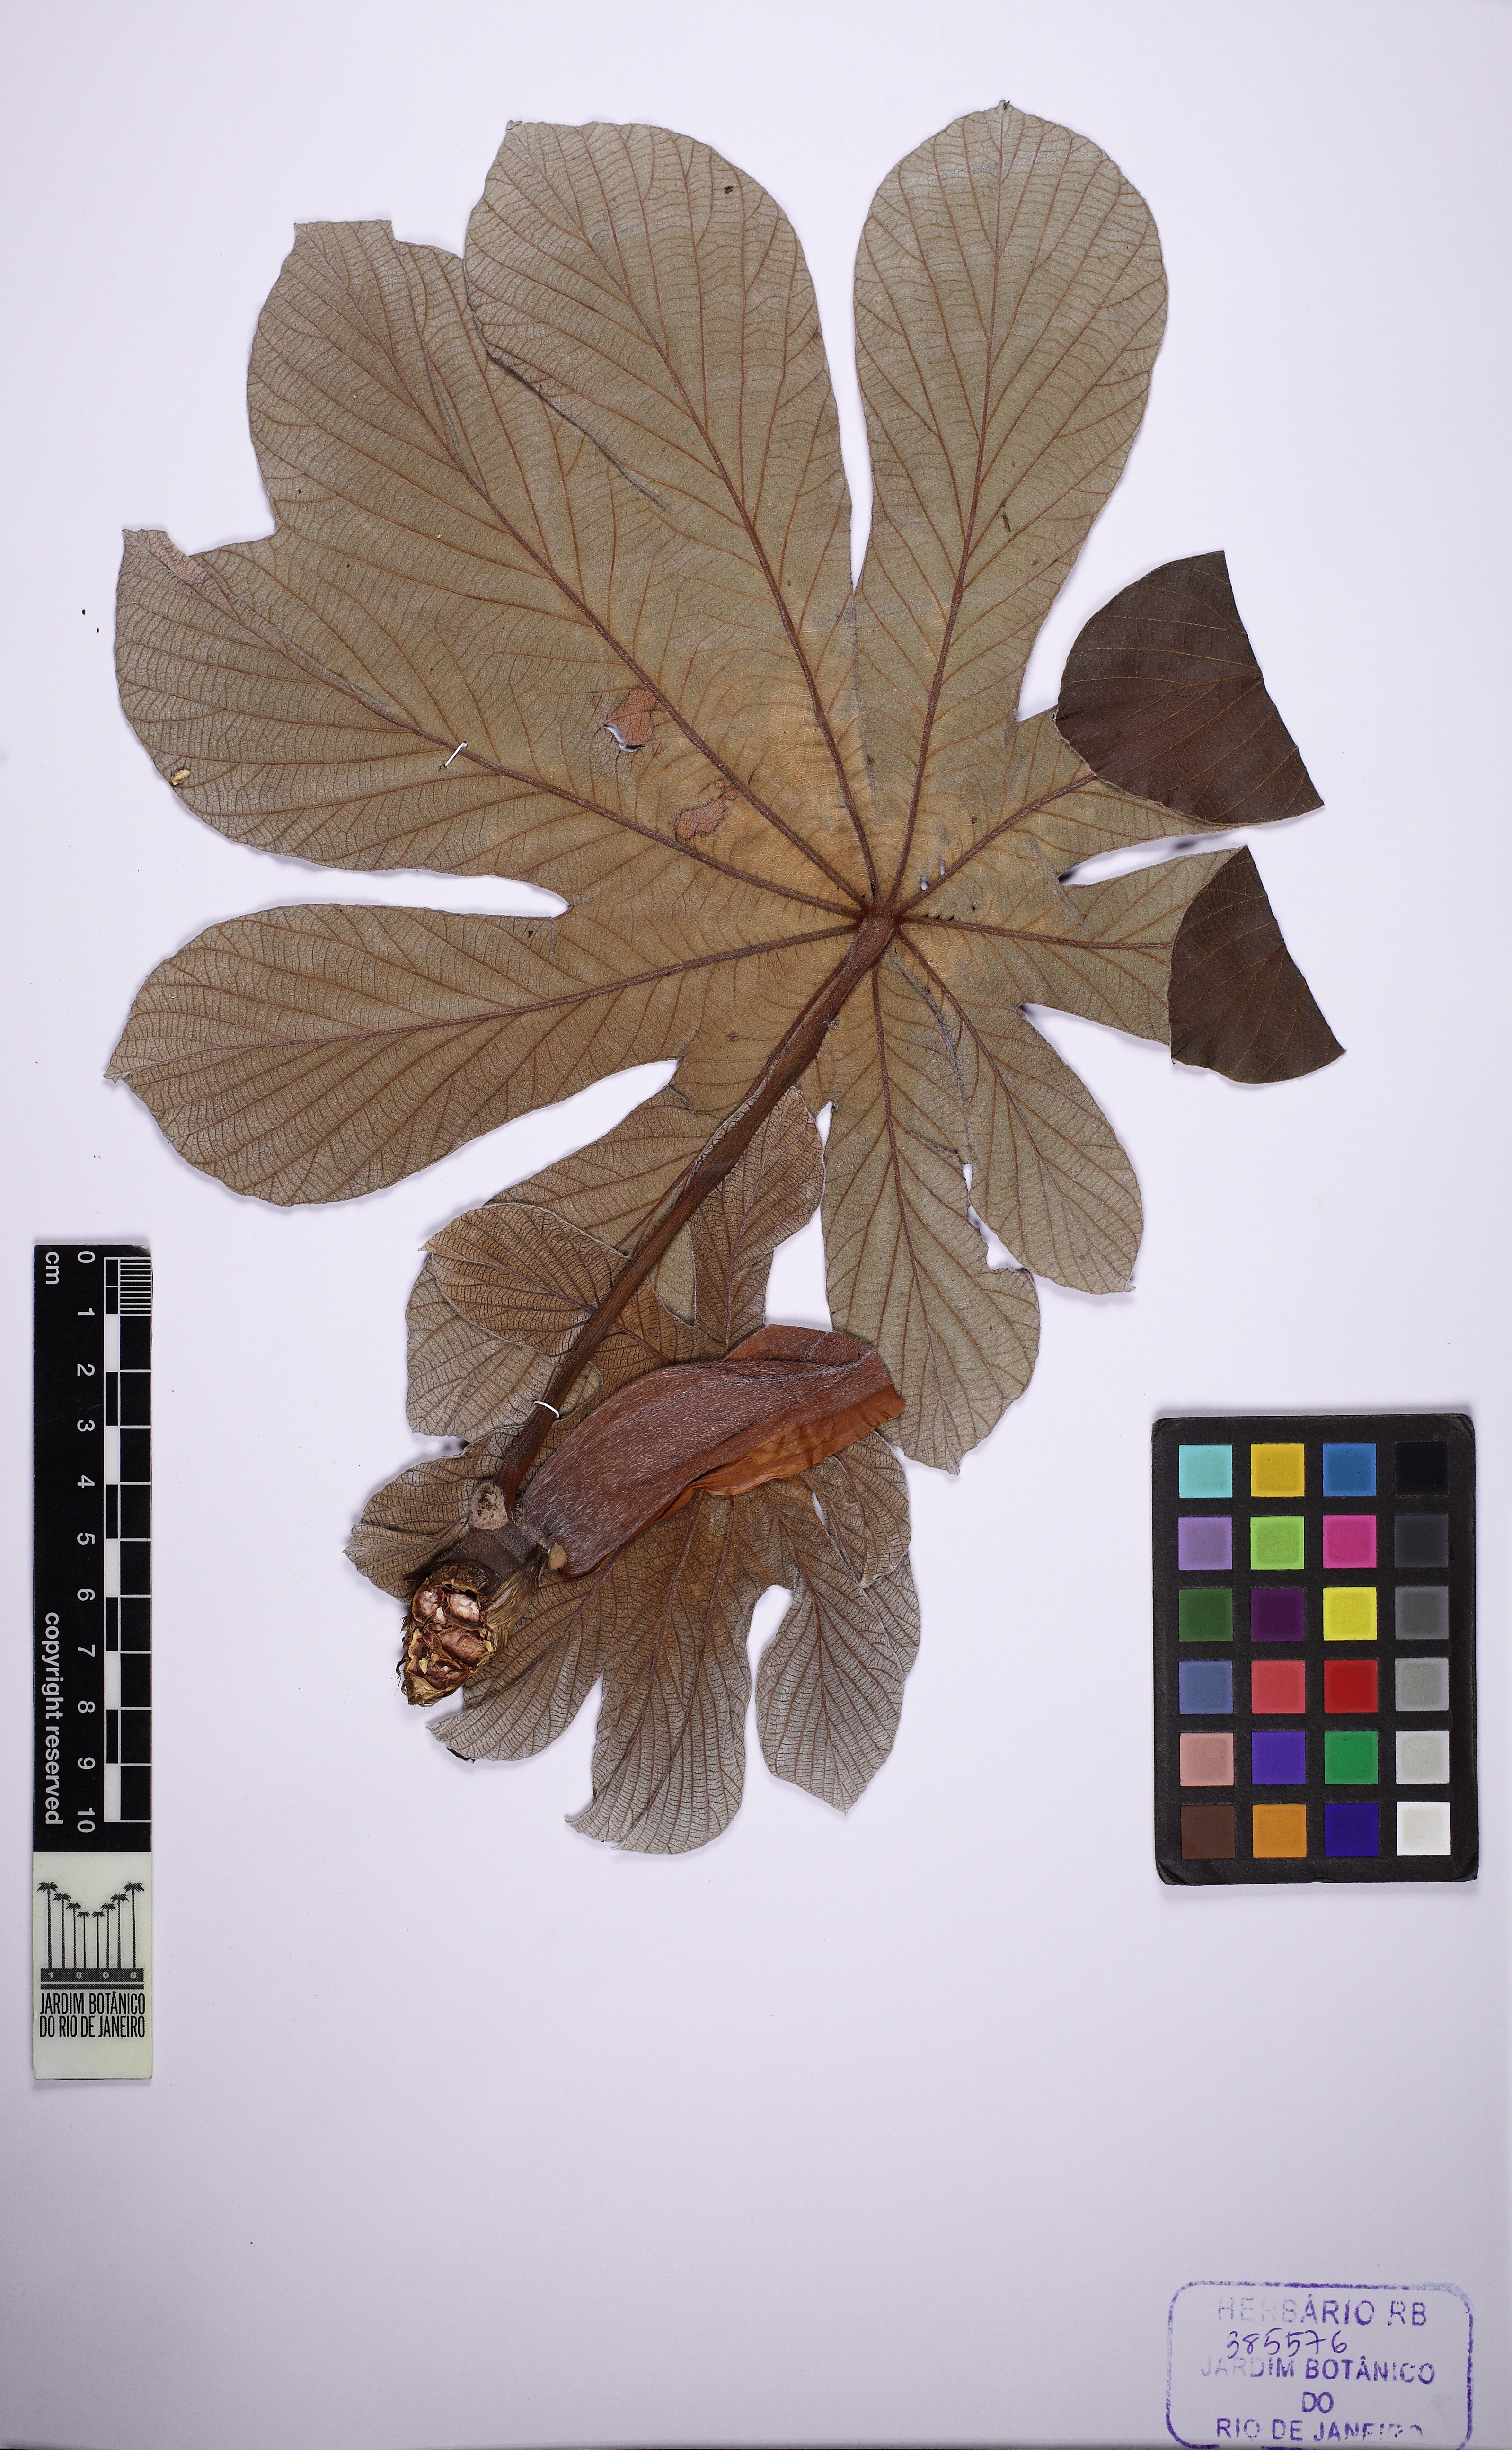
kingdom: Plantae
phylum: Tracheophyta
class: Magnoliopsida
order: Rosales
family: Urticaceae
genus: Cecropia
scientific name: Cecropia pachystachya
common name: Ambay pumpwood
